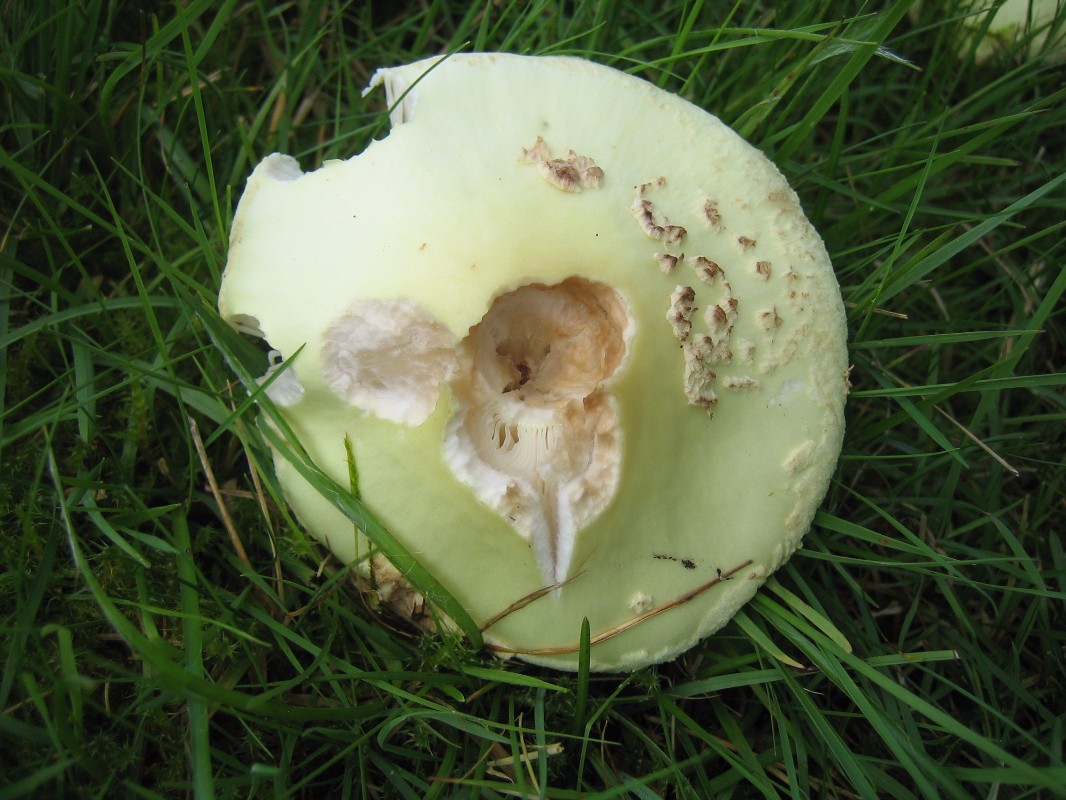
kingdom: Fungi
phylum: Basidiomycota
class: Agaricomycetes
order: Agaricales
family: Amanitaceae
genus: Amanita
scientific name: Amanita citrina
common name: kugleknoldet fluesvamp
